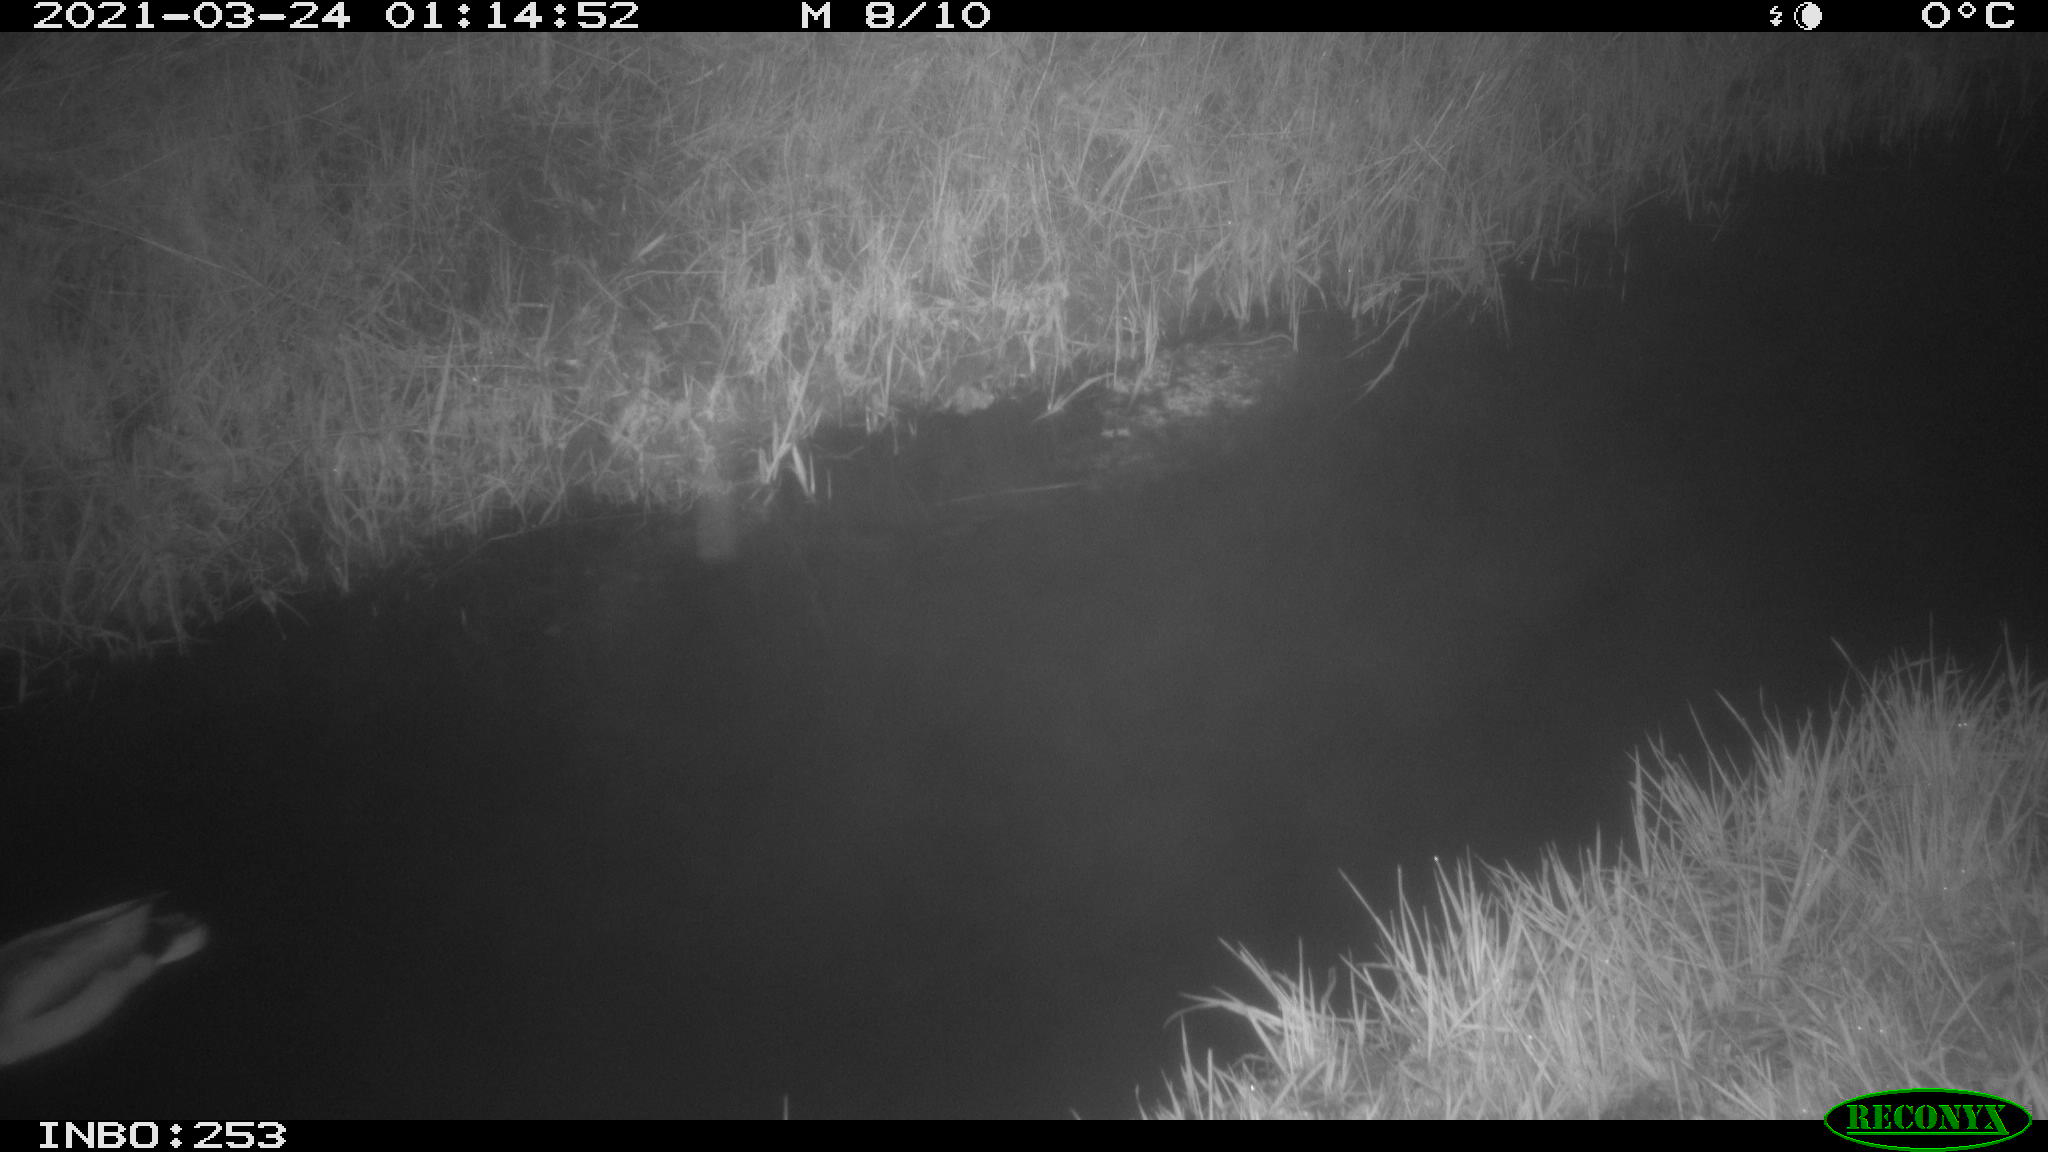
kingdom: Animalia
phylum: Chordata
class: Aves
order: Anseriformes
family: Anatidae
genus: Anas
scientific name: Anas platyrhynchos
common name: Mallard
